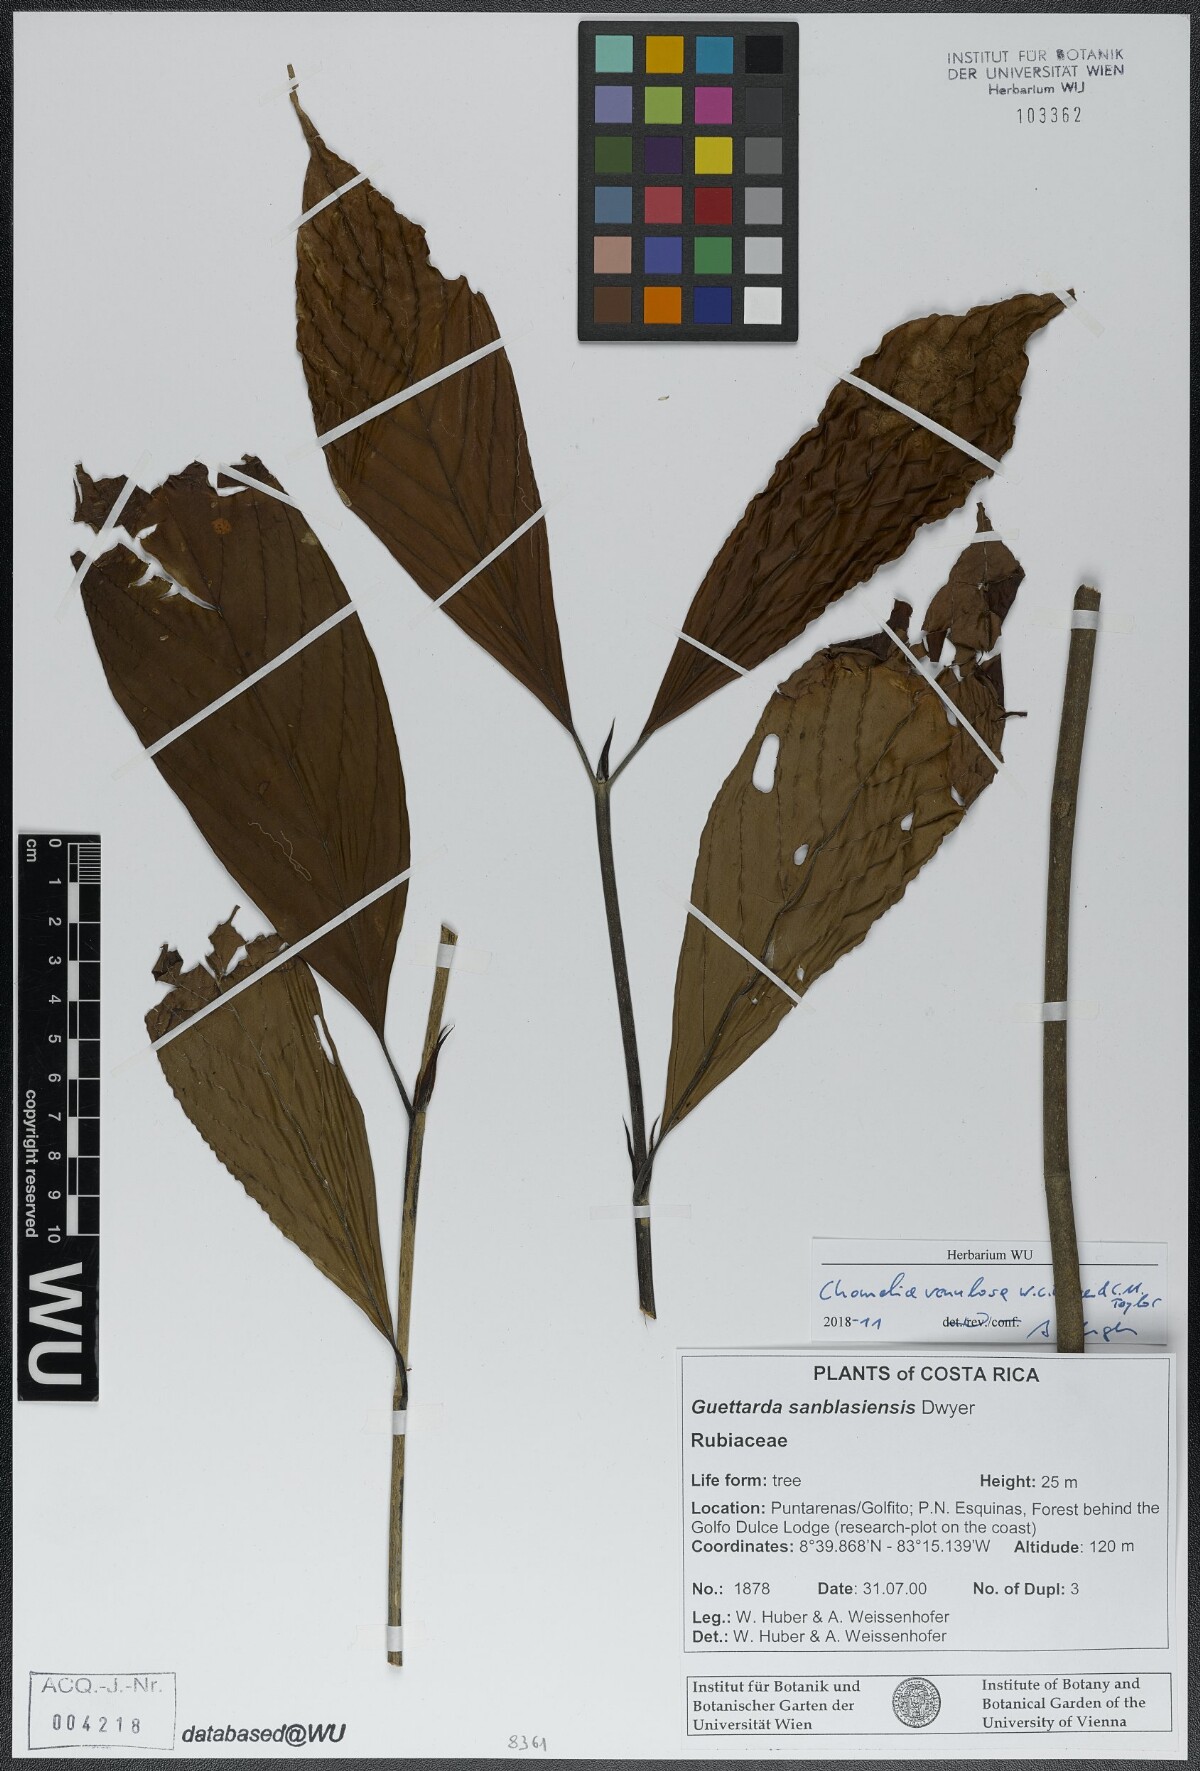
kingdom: Plantae
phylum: Tracheophyta
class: Magnoliopsida
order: Gentianales
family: Rubiaceae
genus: Chomelia
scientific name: Chomelia venulosa
